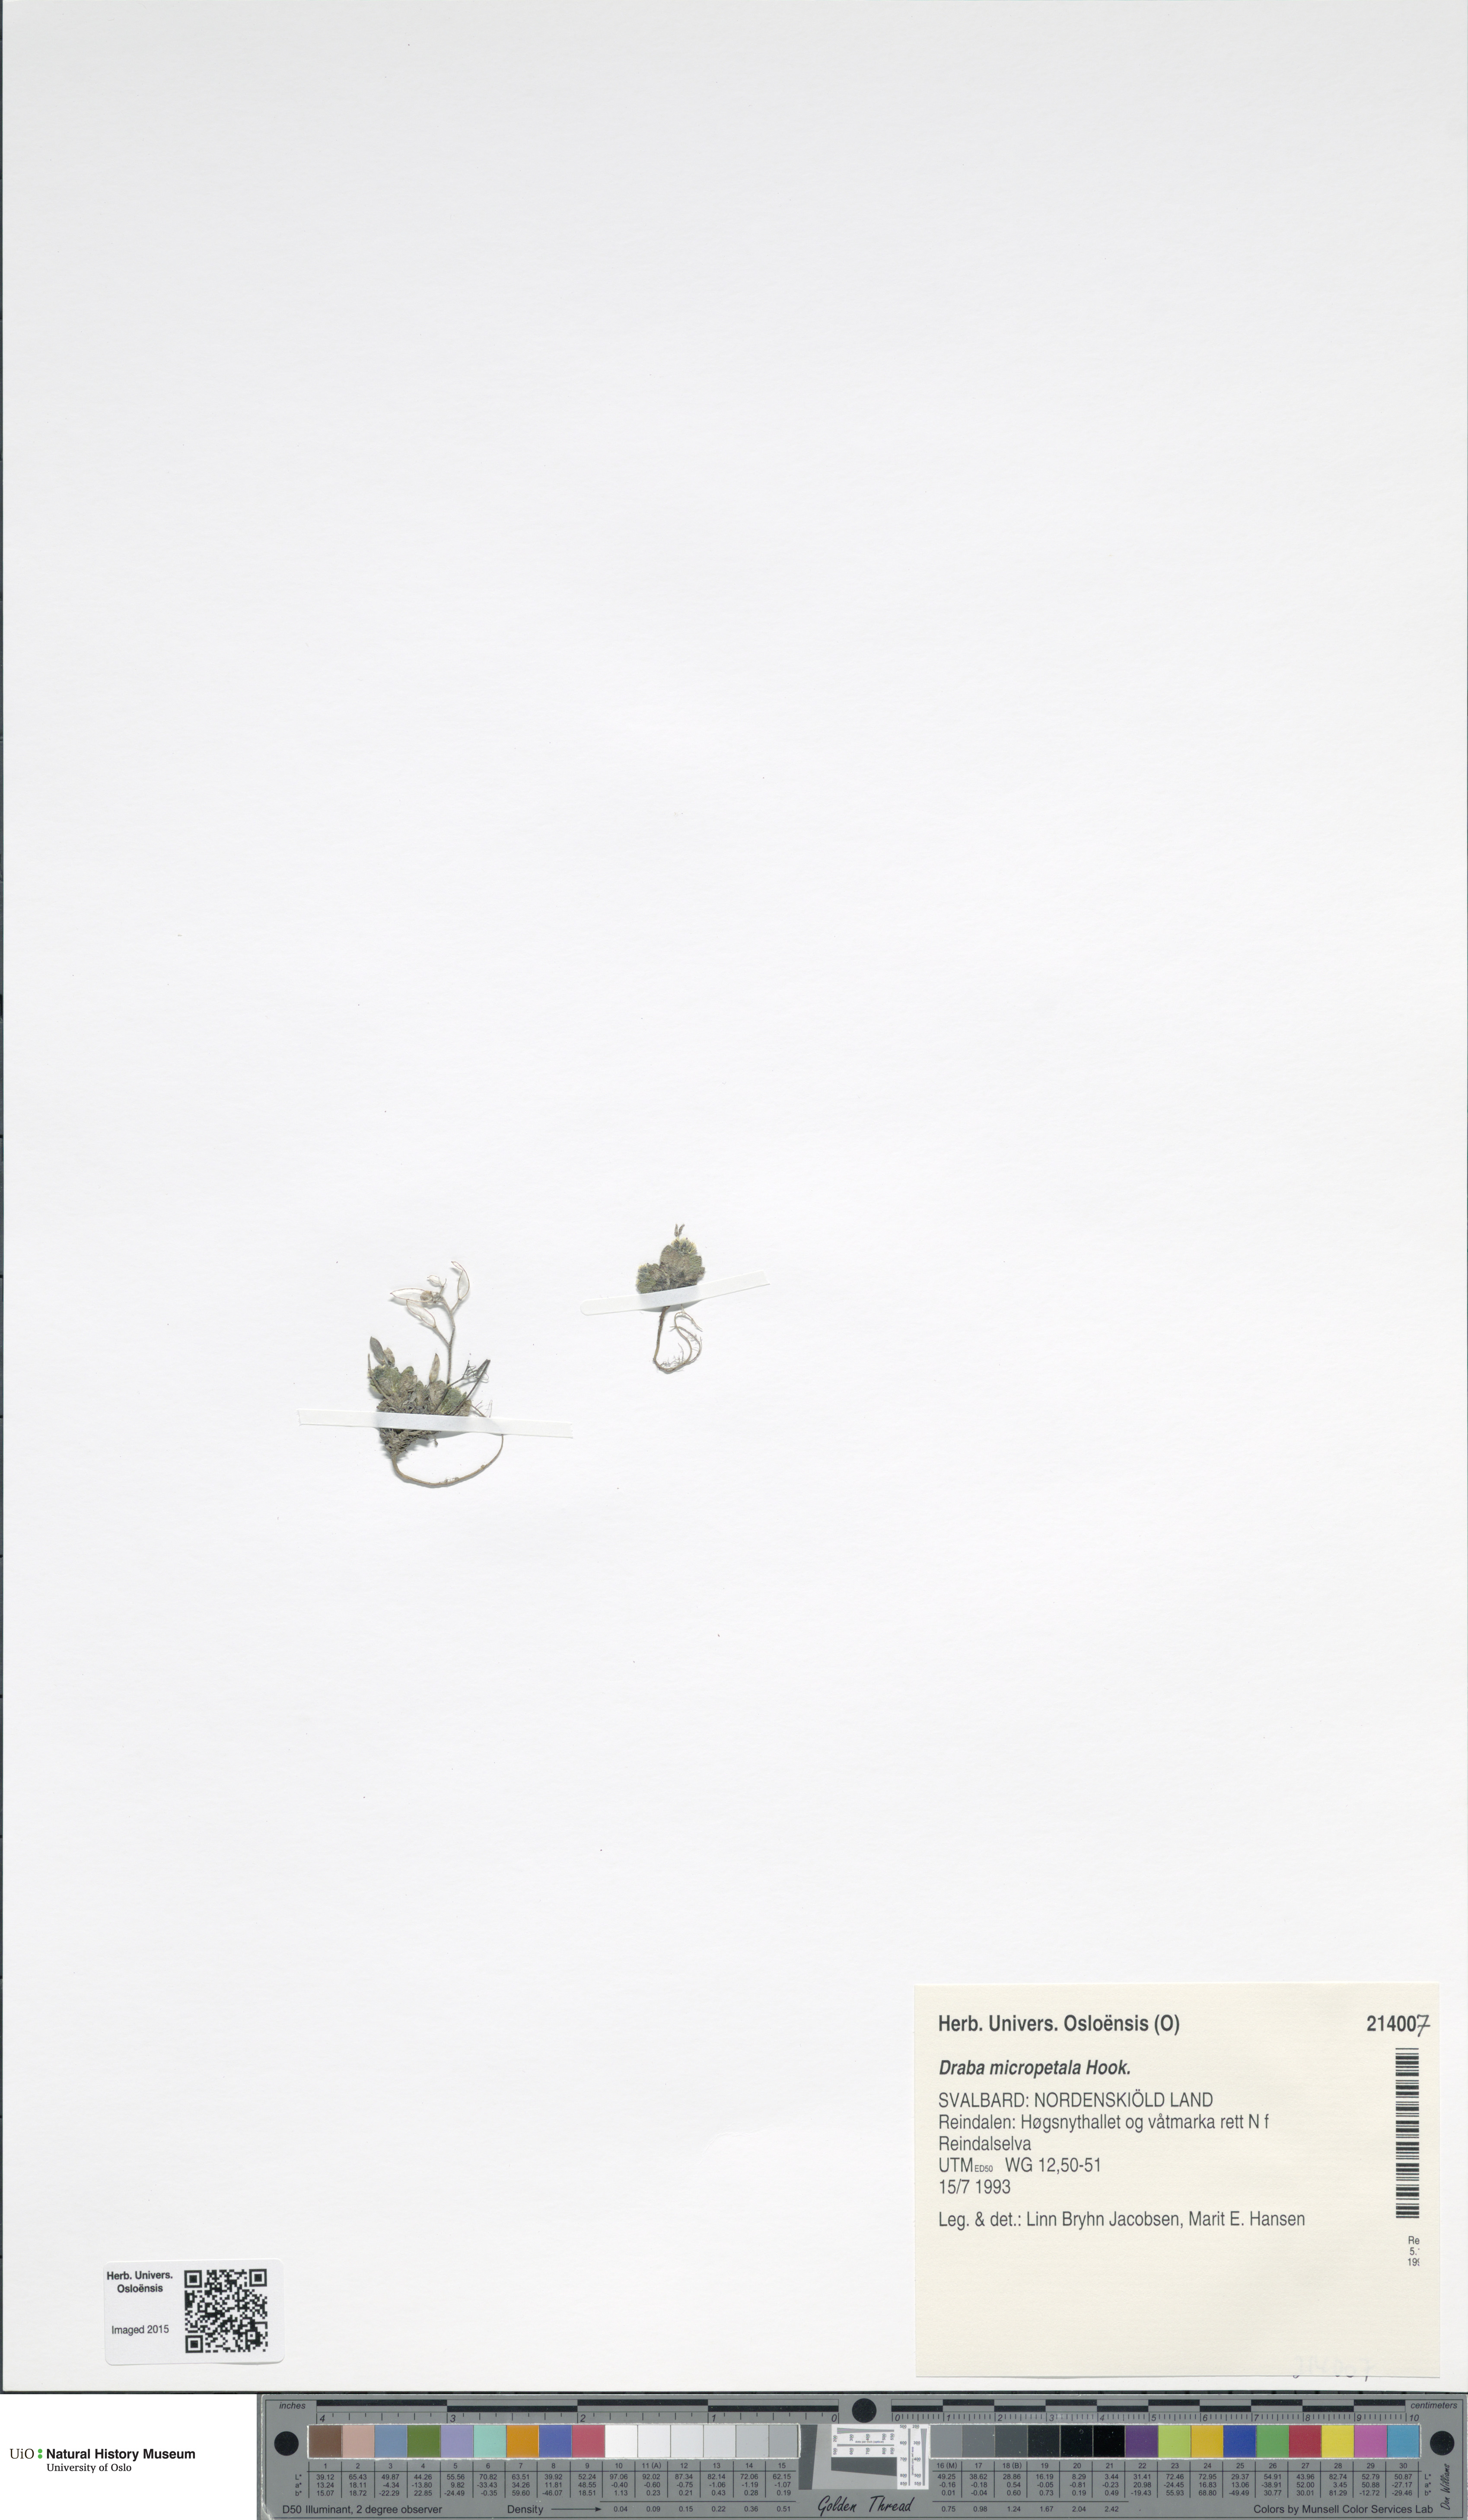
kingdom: Plantae
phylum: Tracheophyta
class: Magnoliopsida
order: Brassicales
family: Brassicaceae
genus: Draba
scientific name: Draba micropetala
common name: Small-flowered draba
